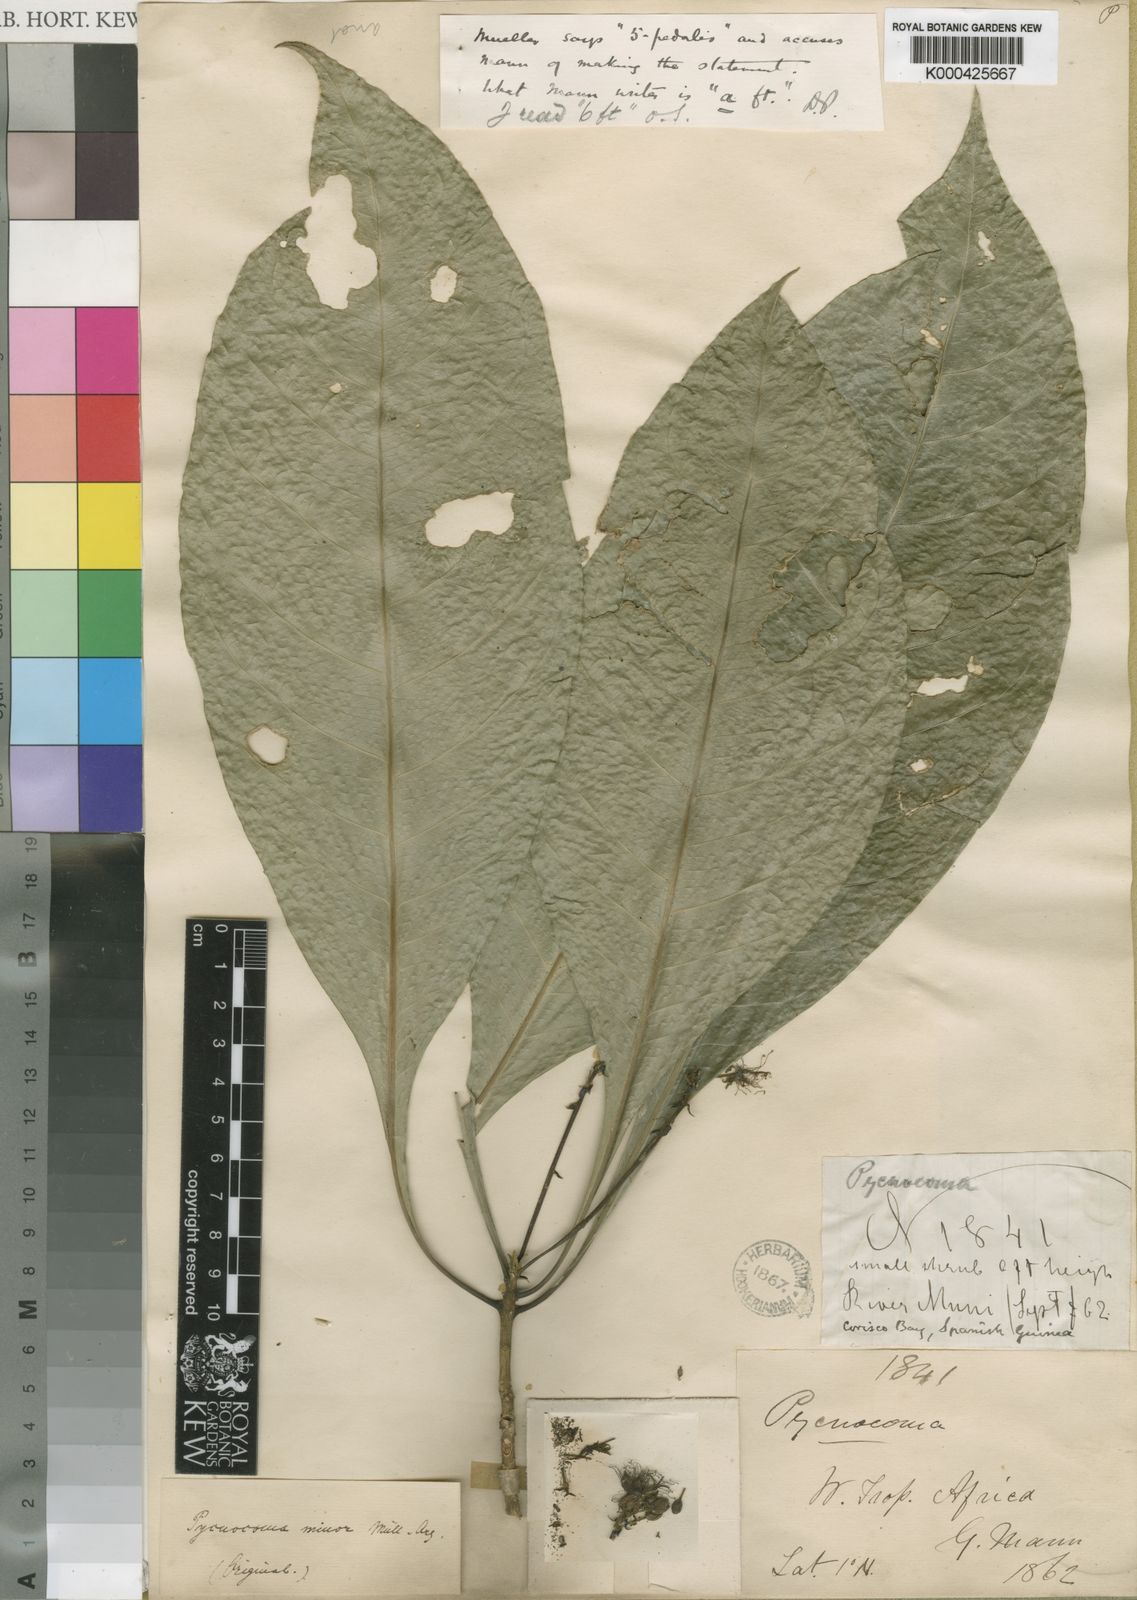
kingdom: Plantae
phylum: Tracheophyta
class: Magnoliopsida
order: Malpighiales
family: Euphorbiaceae
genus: Pycnocoma
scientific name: Pycnocoma
